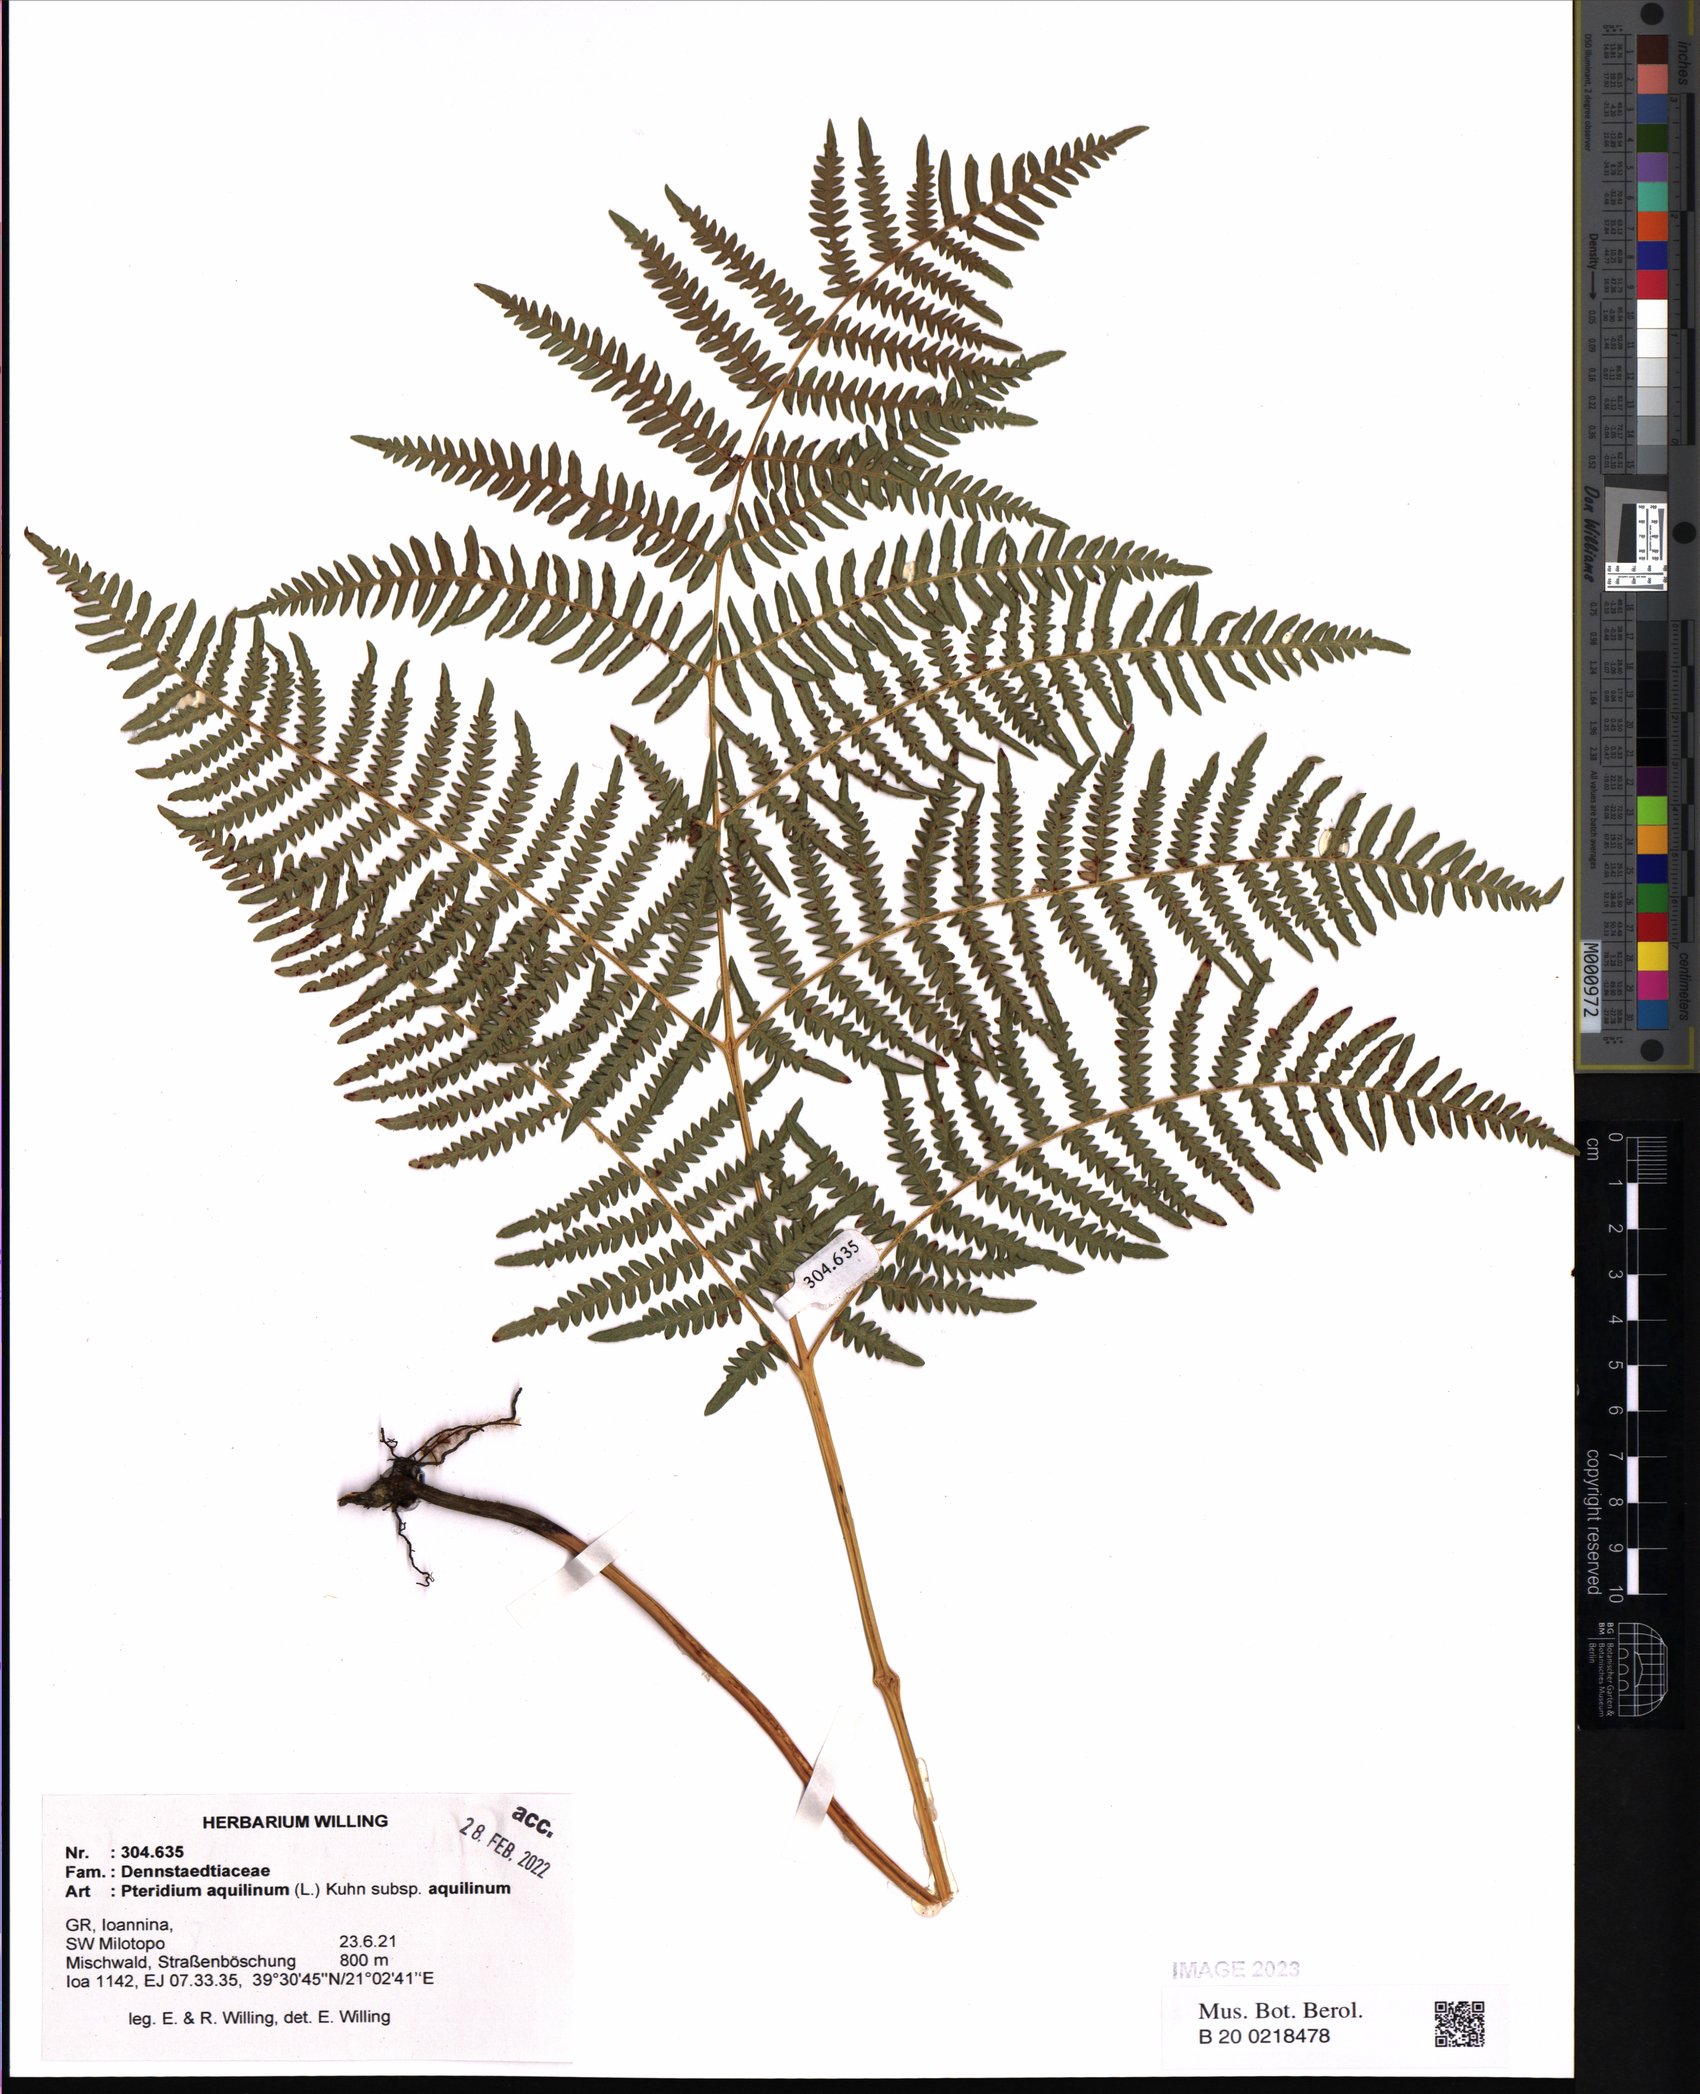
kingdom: Plantae
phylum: Tracheophyta
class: Polypodiopsida
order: Polypodiales
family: Dennstaedtiaceae
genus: Pteridium
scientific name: Pteridium aquilinum
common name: Bracken
